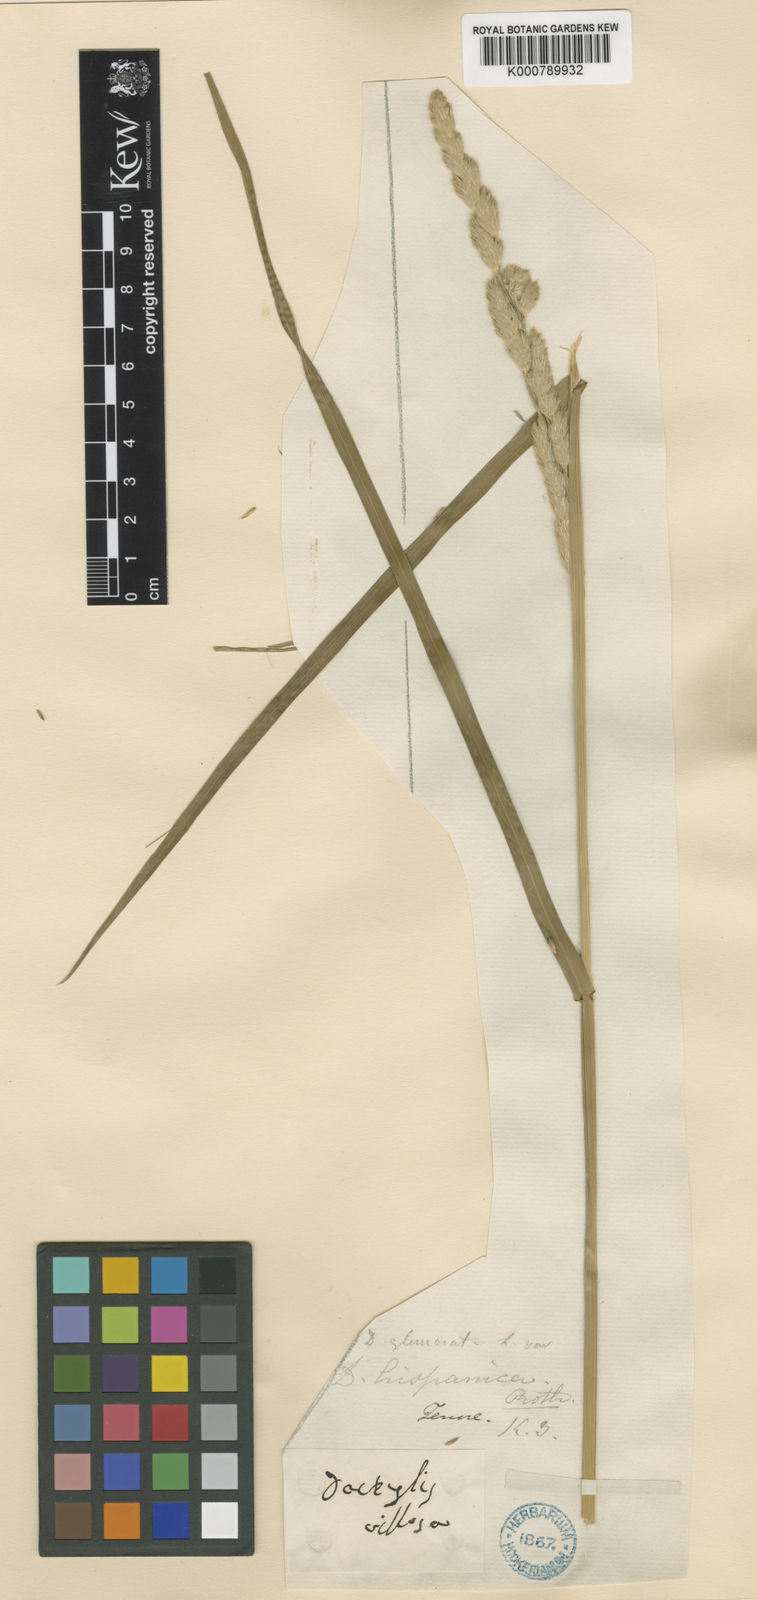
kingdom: Plantae
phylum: Tracheophyta
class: Liliopsida
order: Poales
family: Poaceae
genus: Dactylis
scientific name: Dactylis glomerata
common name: Orchardgrass
